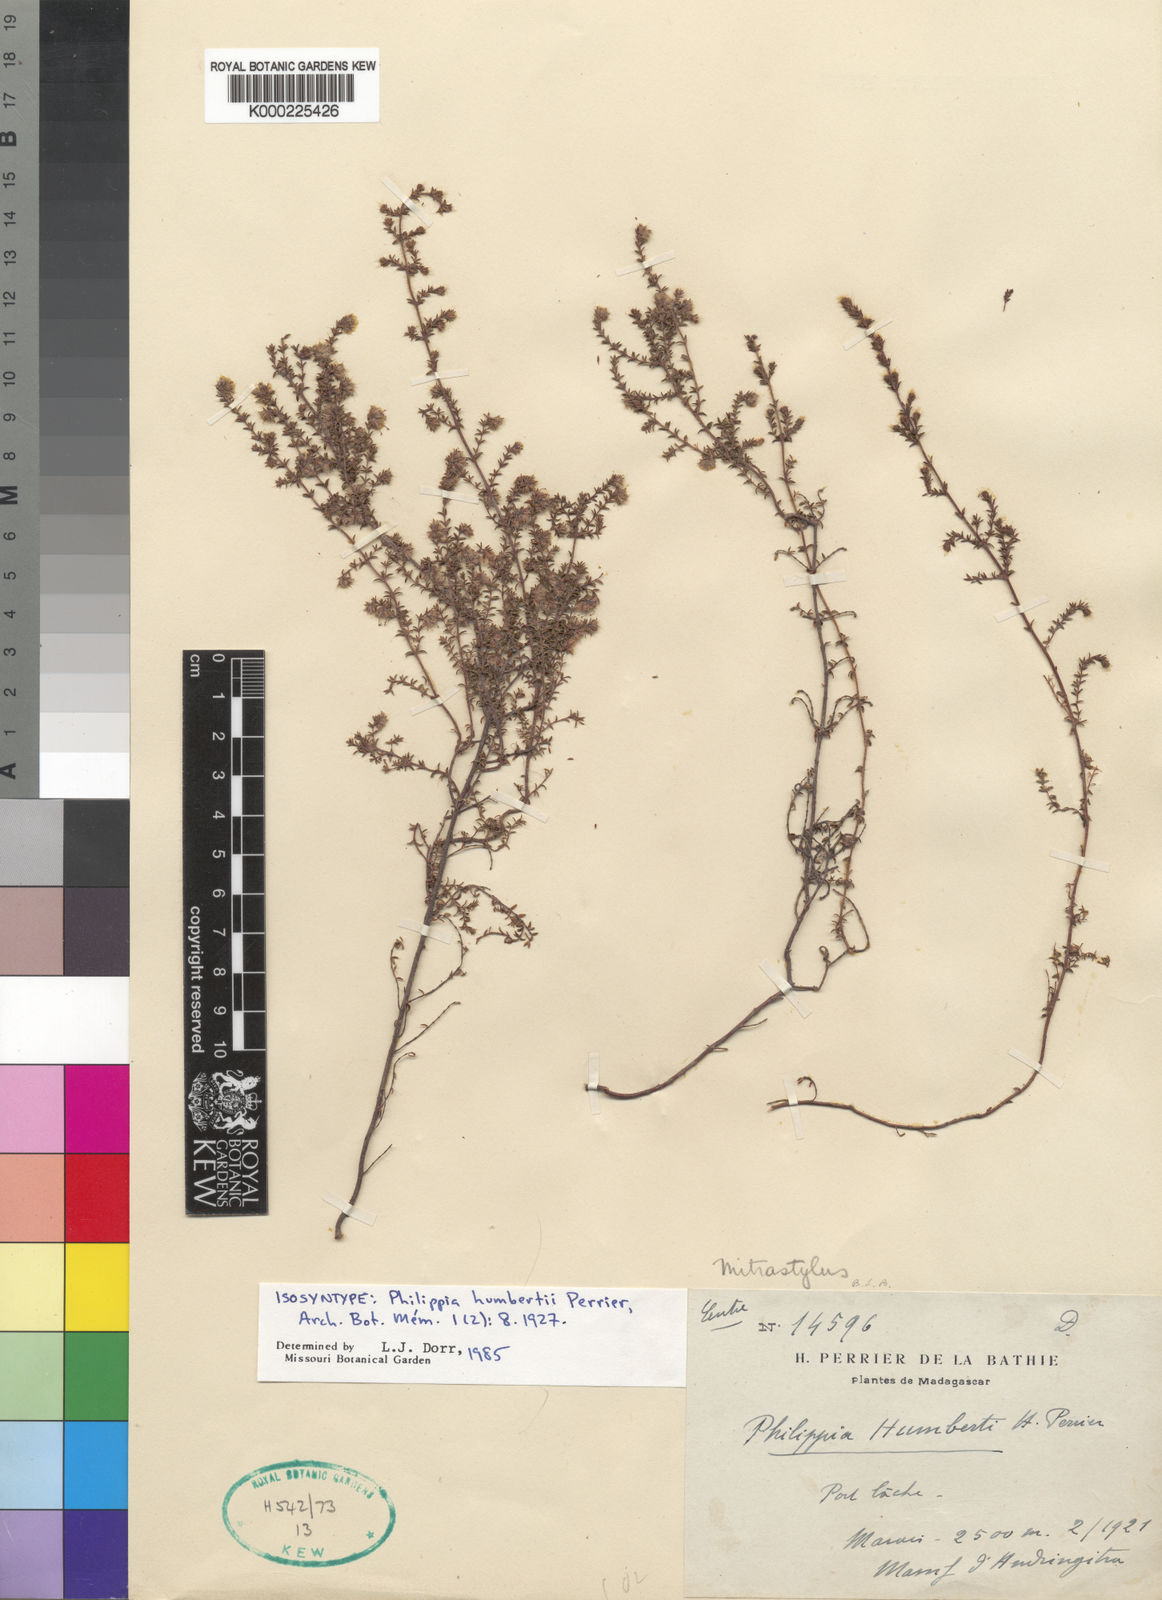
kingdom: Plantae
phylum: Tracheophyta
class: Magnoliopsida
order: Ericales
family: Ericaceae
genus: Erica
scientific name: Erica humbertii
